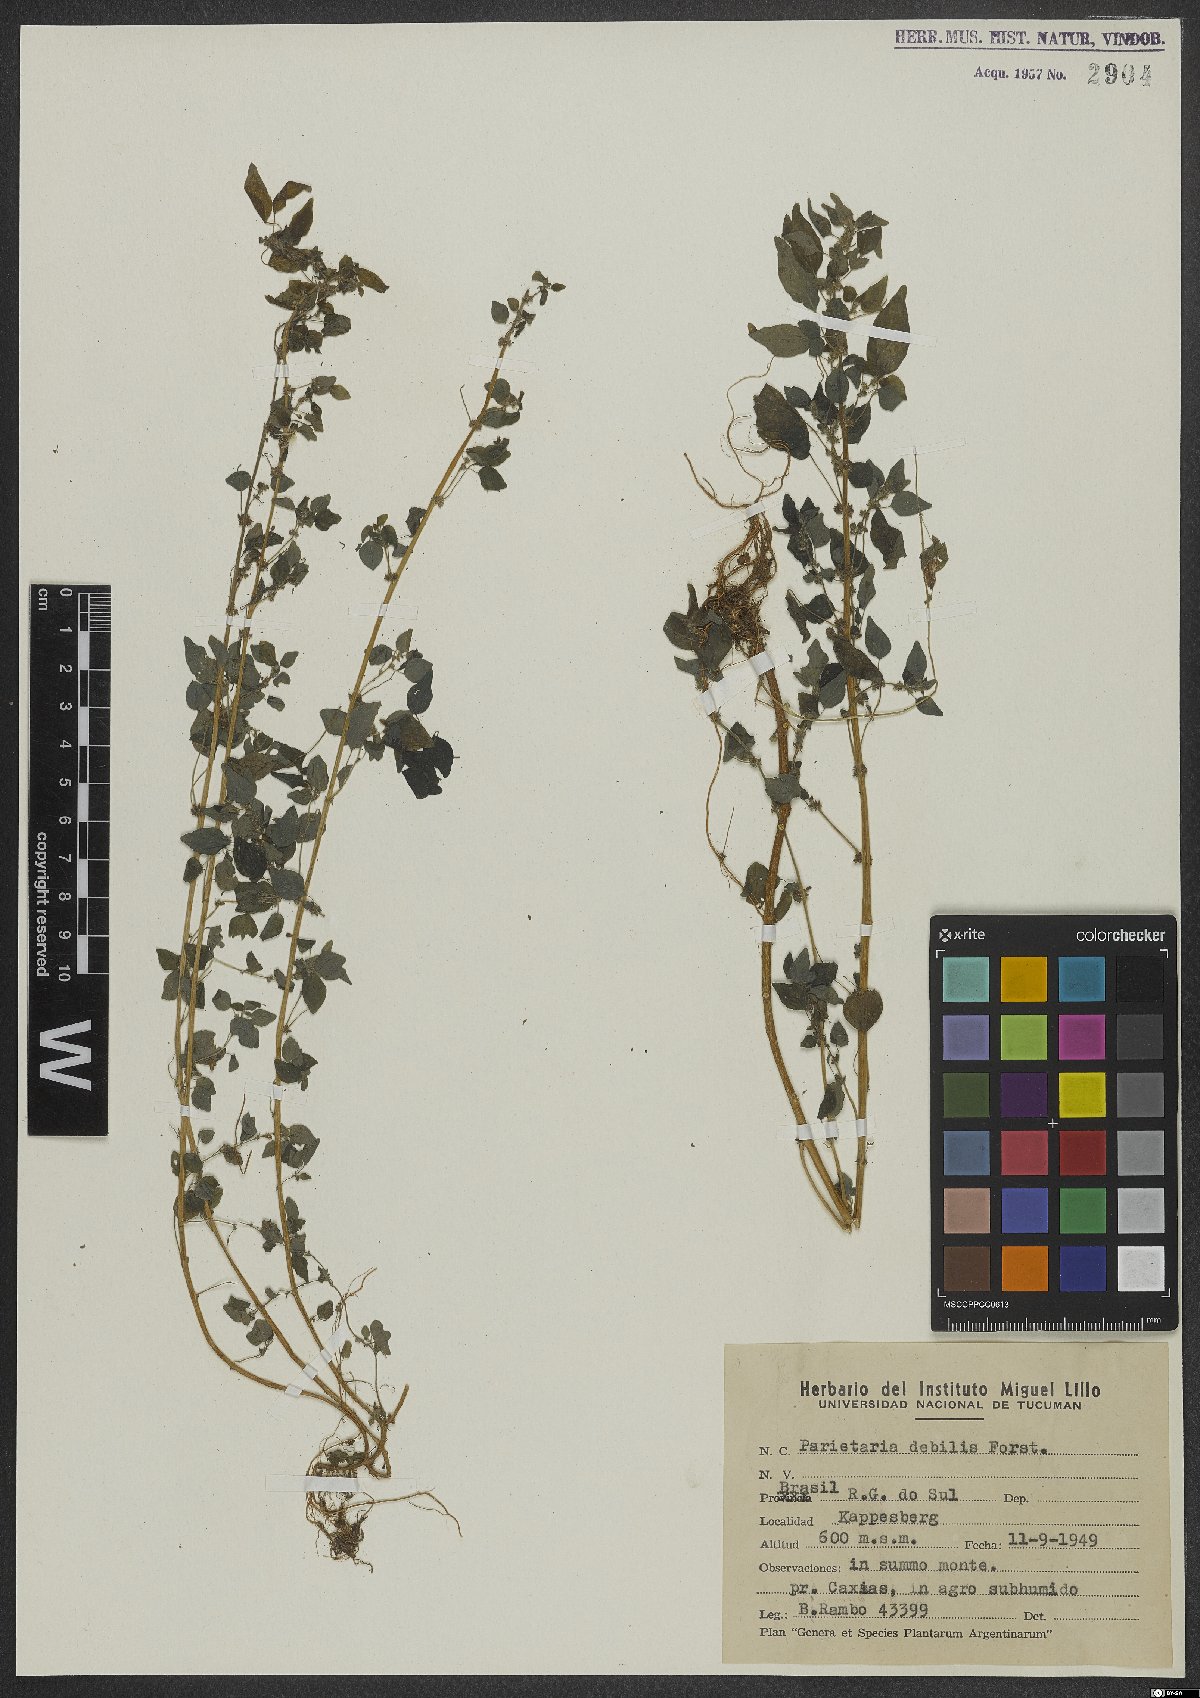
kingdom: Plantae
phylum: Tracheophyta
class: Magnoliopsida
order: Rosales
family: Urticaceae
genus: Parietaria
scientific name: Parietaria debilis
